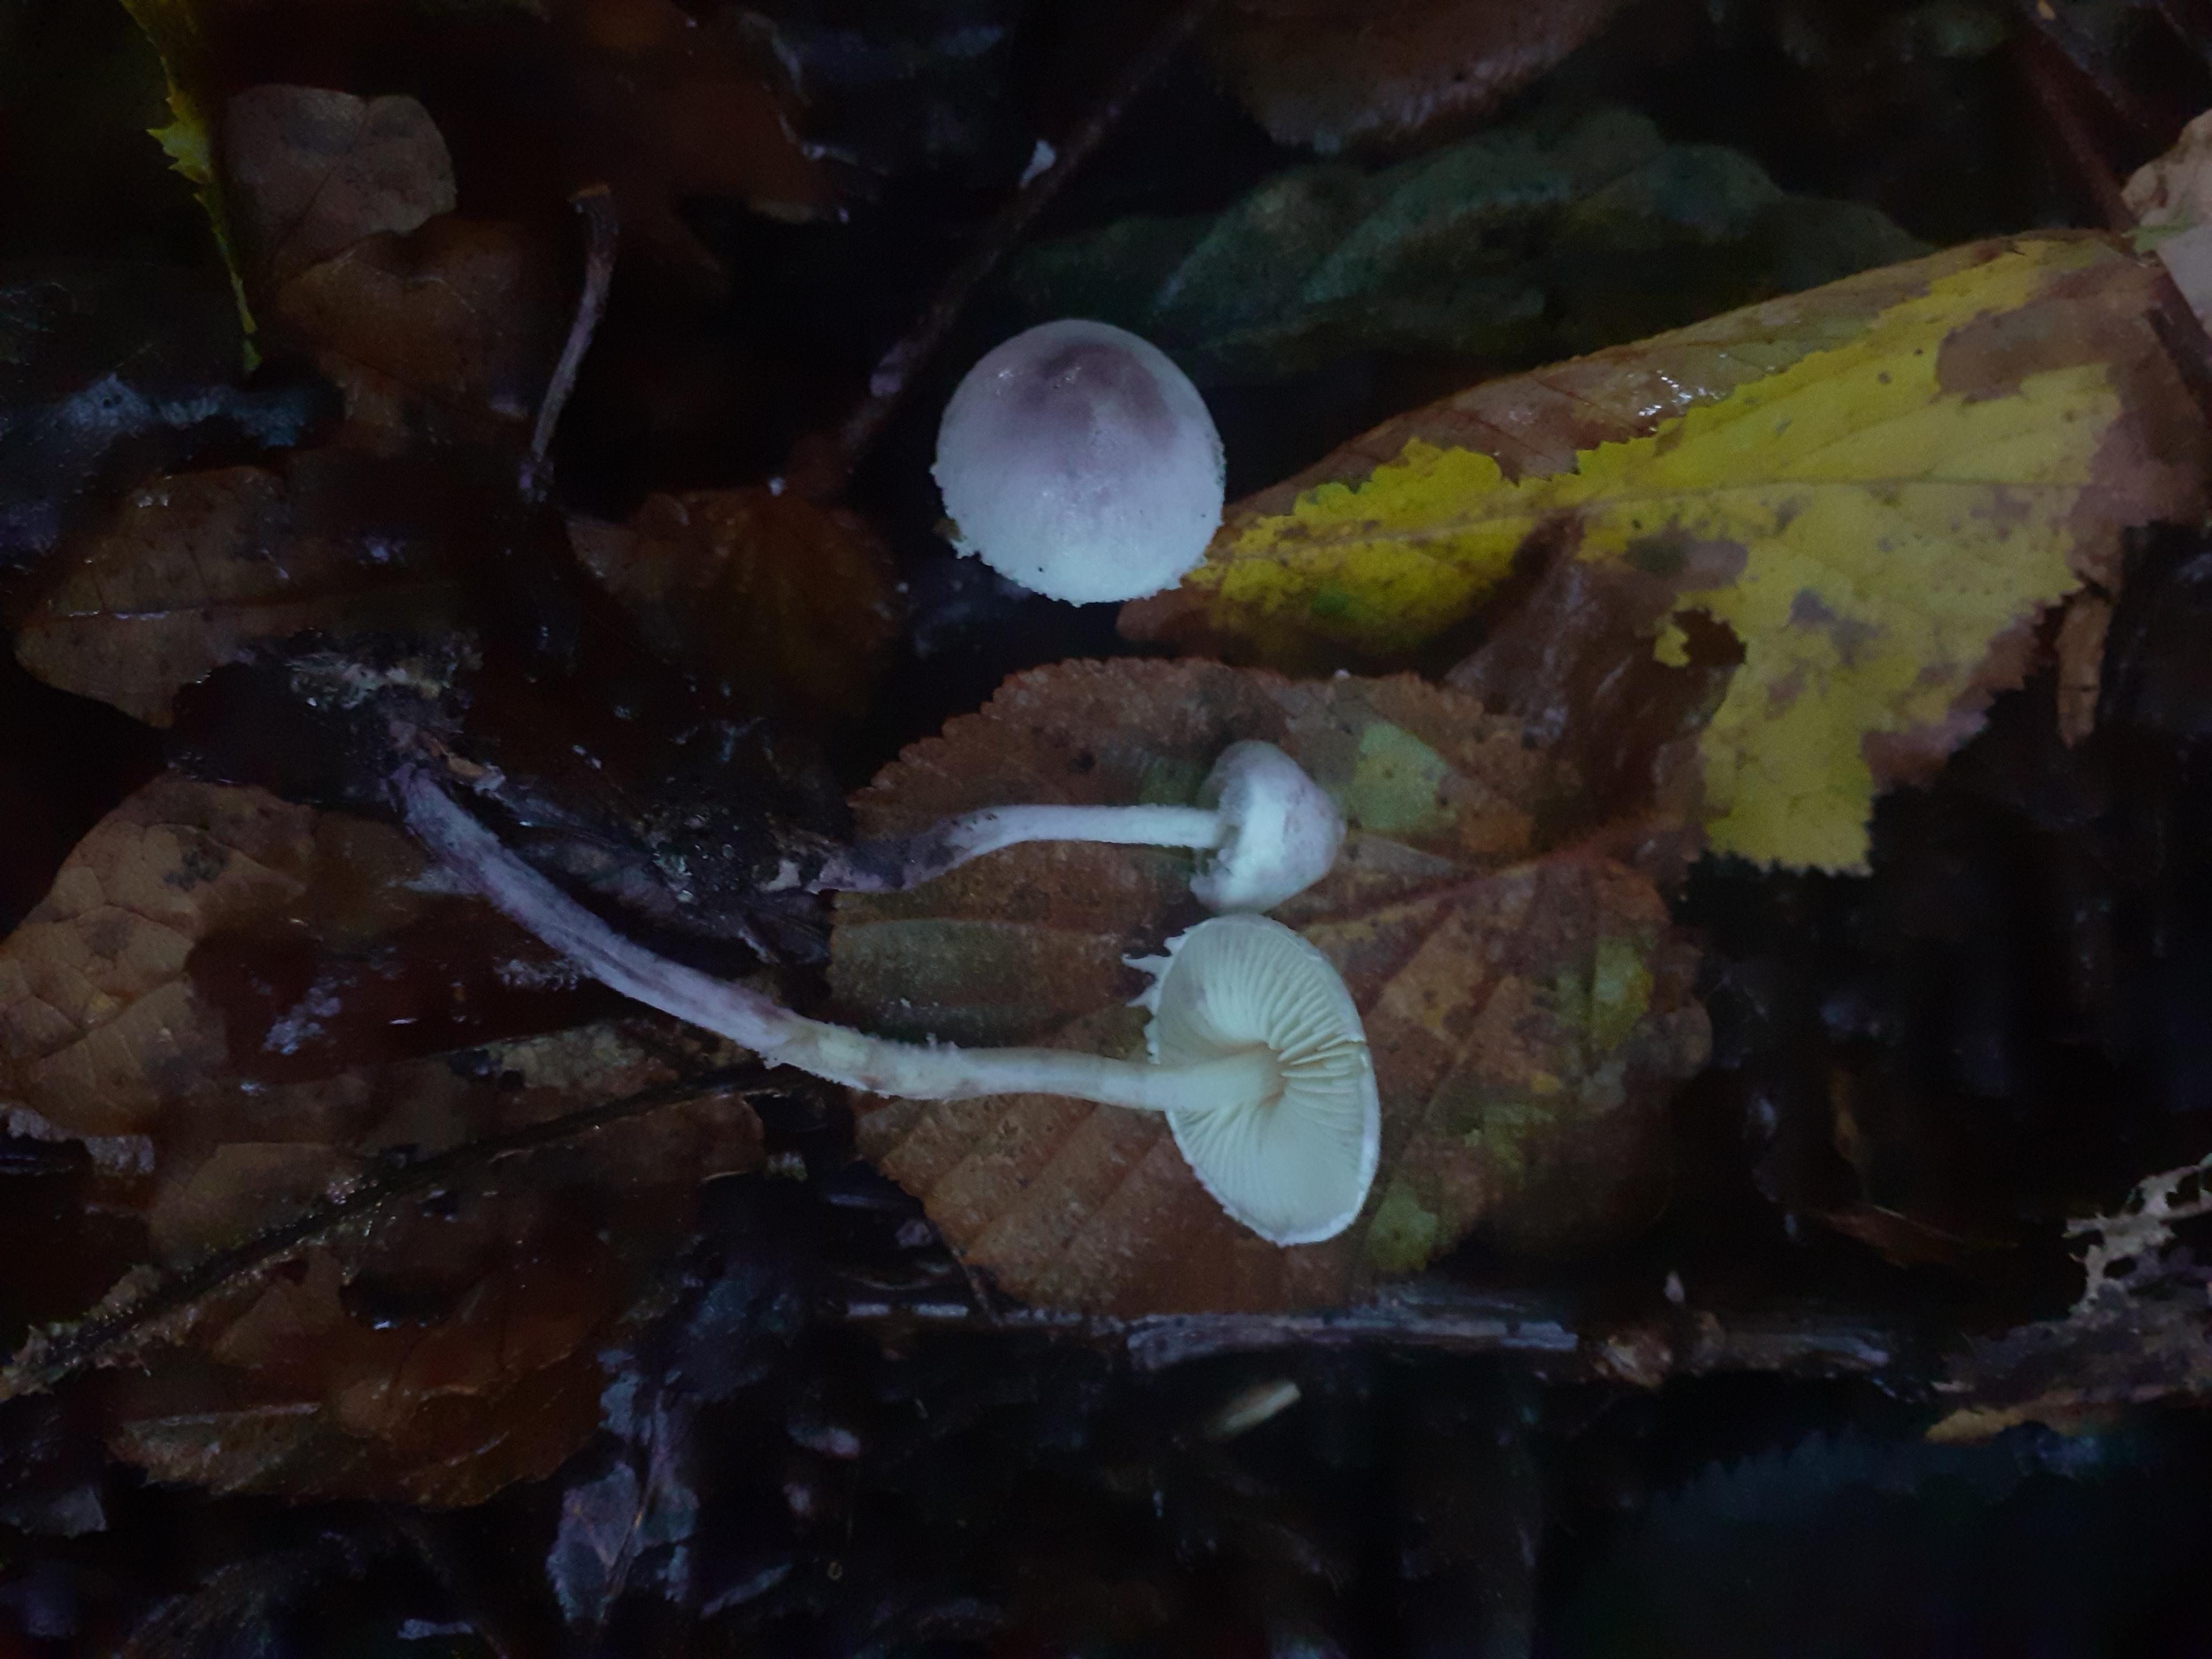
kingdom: Fungi
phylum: Basidiomycota
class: Agaricomycetes
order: Agaricales
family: Agaricaceae
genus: Cystolepiota
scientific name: Cystolepiota bucknallii
